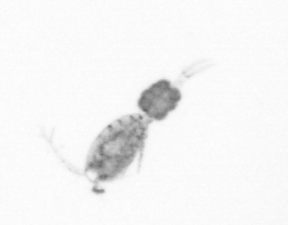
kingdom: Animalia
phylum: Arthropoda
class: Copepoda
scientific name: Copepoda
